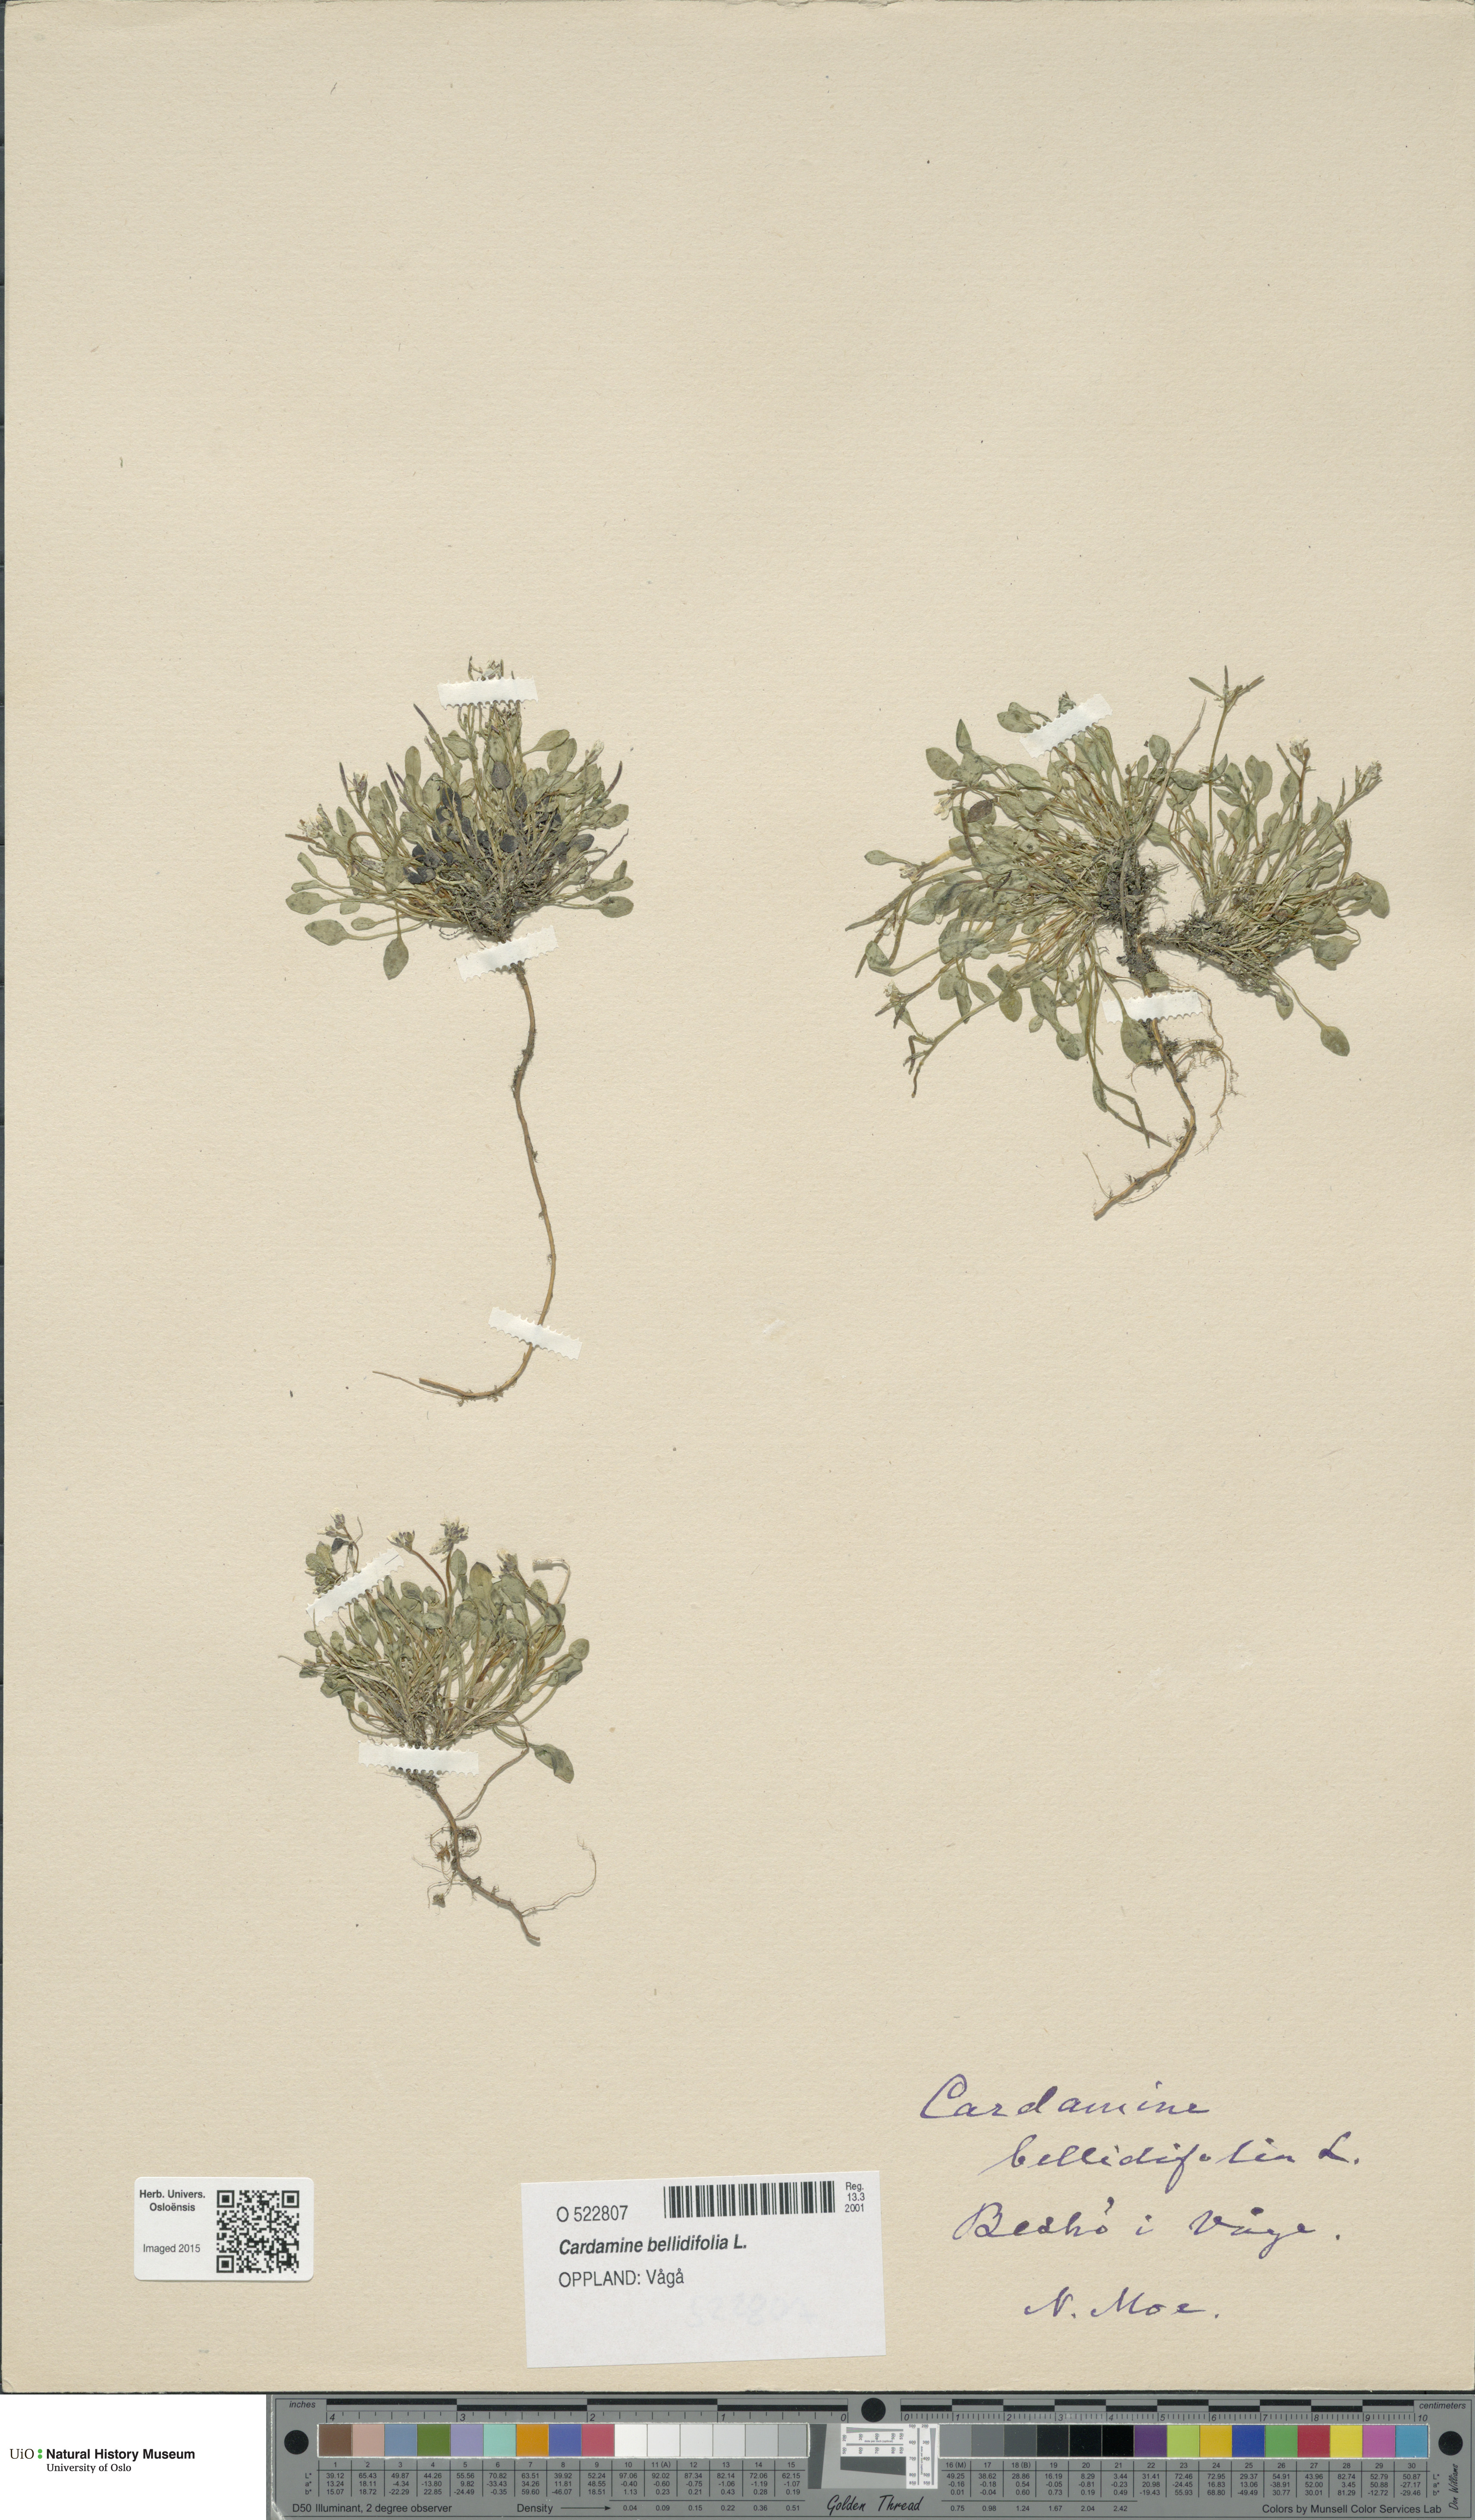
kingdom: Plantae
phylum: Tracheophyta
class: Magnoliopsida
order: Brassicales
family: Brassicaceae
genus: Cardamine
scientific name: Cardamine bellidifolia
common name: Alpine bittercress
